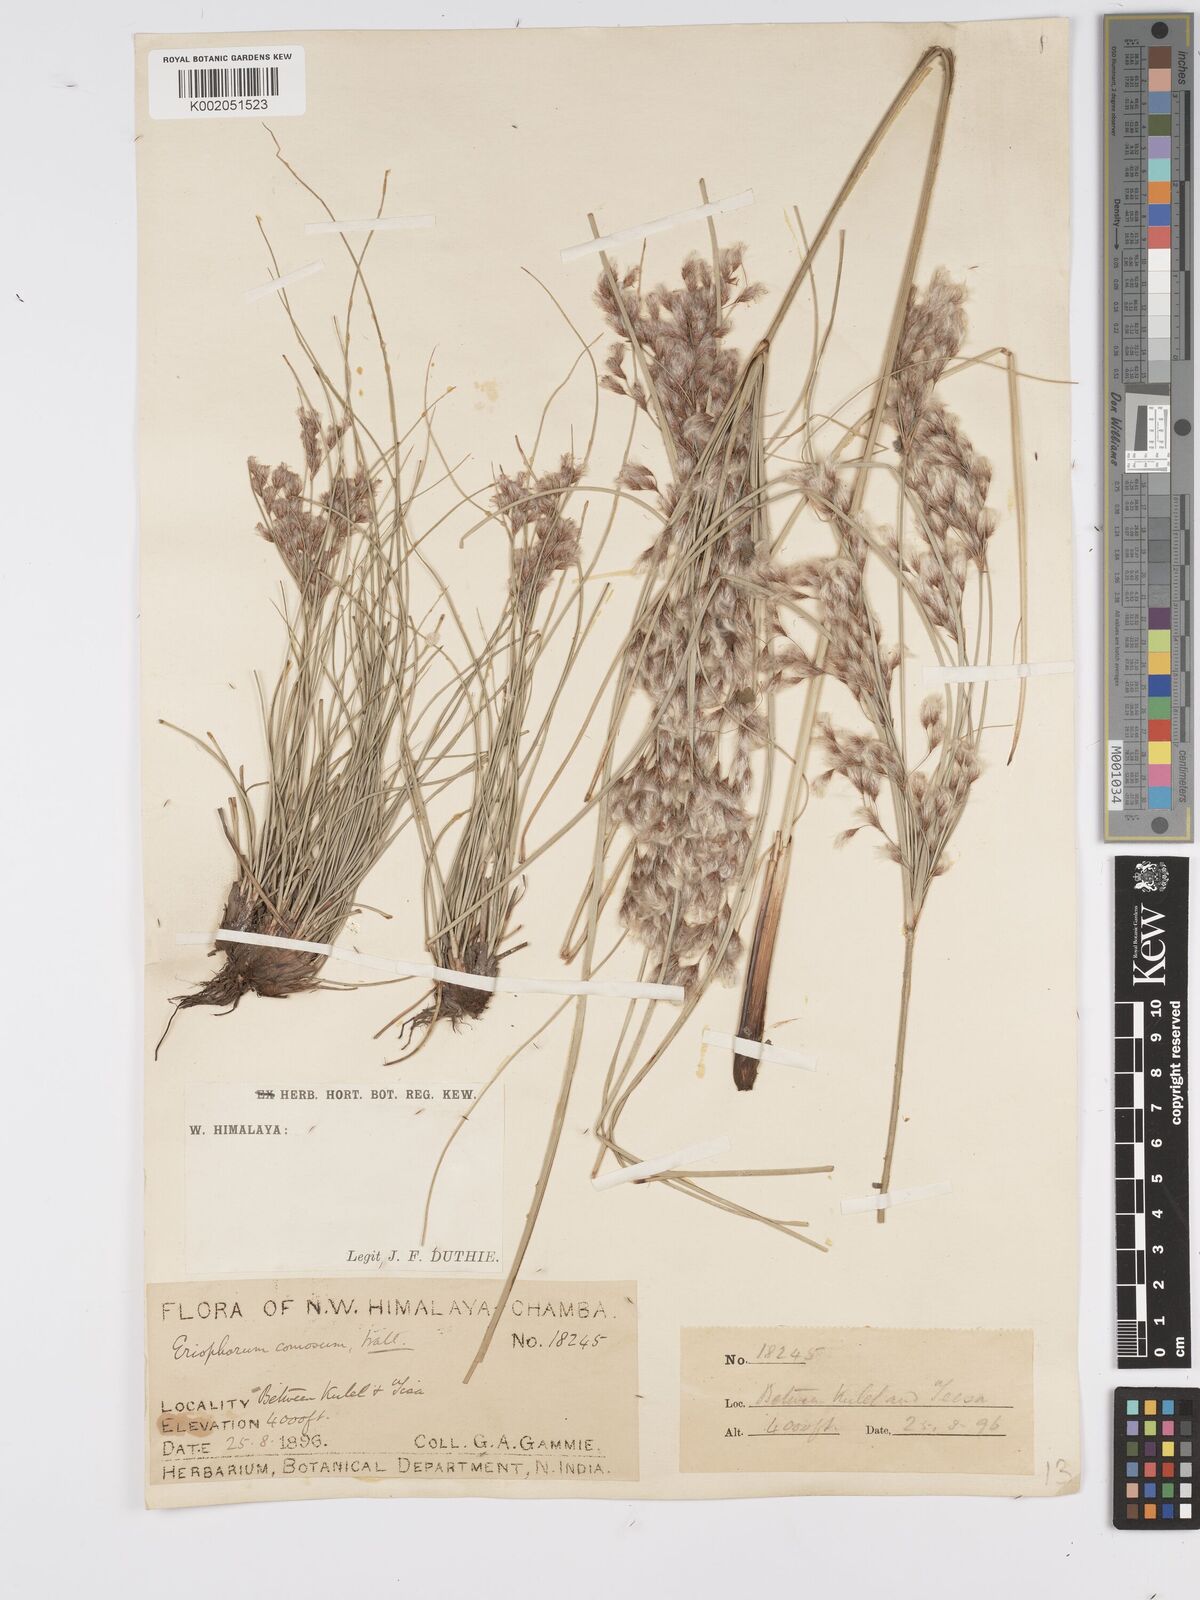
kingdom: Plantae
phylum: Tracheophyta
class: Liliopsida
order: Poales
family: Cyperaceae
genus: Erioscirpus
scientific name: Erioscirpus comosus
